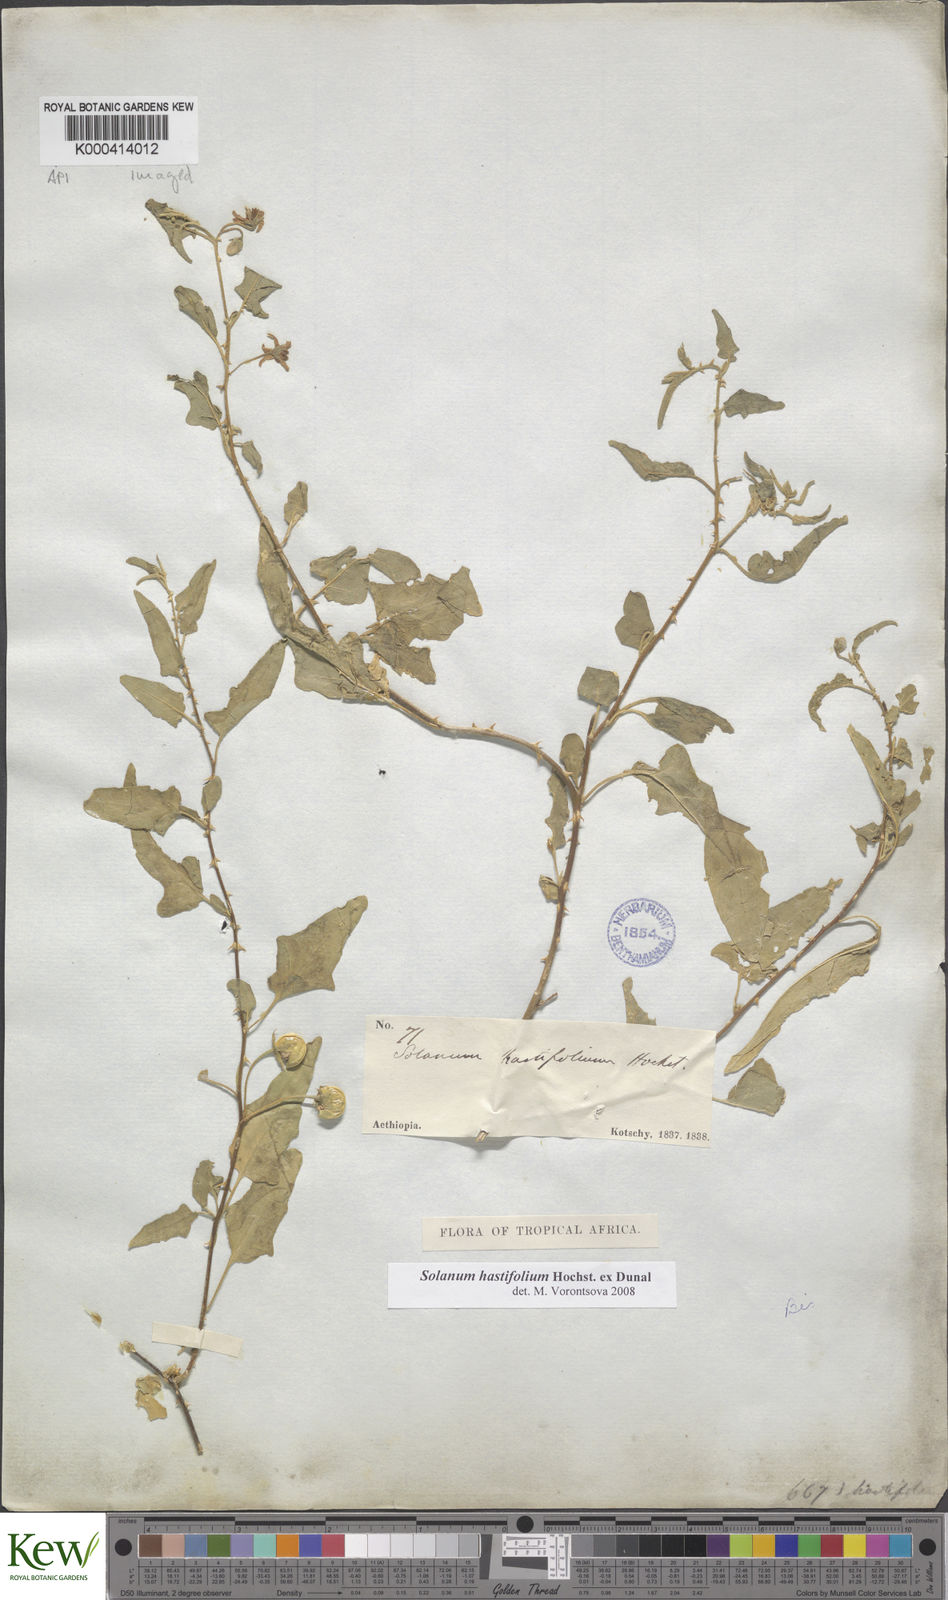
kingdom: Plantae
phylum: Tracheophyta
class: Magnoliopsida
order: Solanales
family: Solanaceae
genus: Solanum
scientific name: Solanum hastifolium
